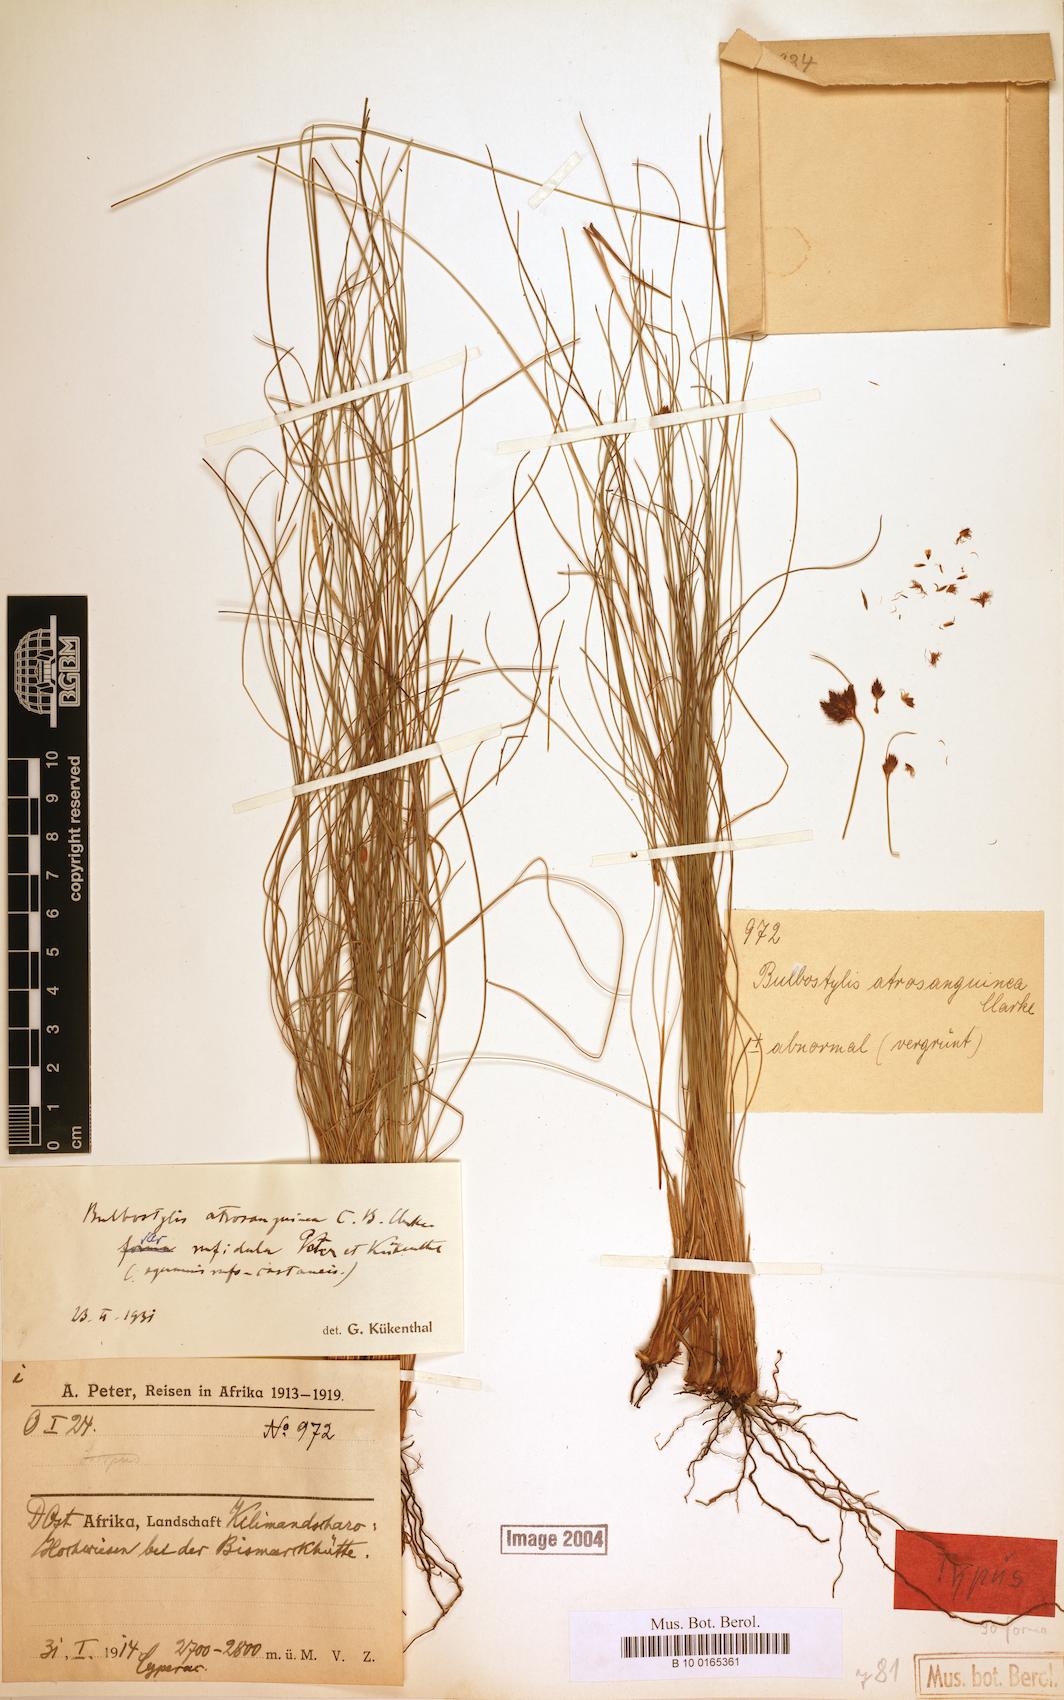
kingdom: Plantae
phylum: Tracheophyta
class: Liliopsida
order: Poales
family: Cyperaceae
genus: Bulbostylis
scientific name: Bulbostylis atrosanguinea
